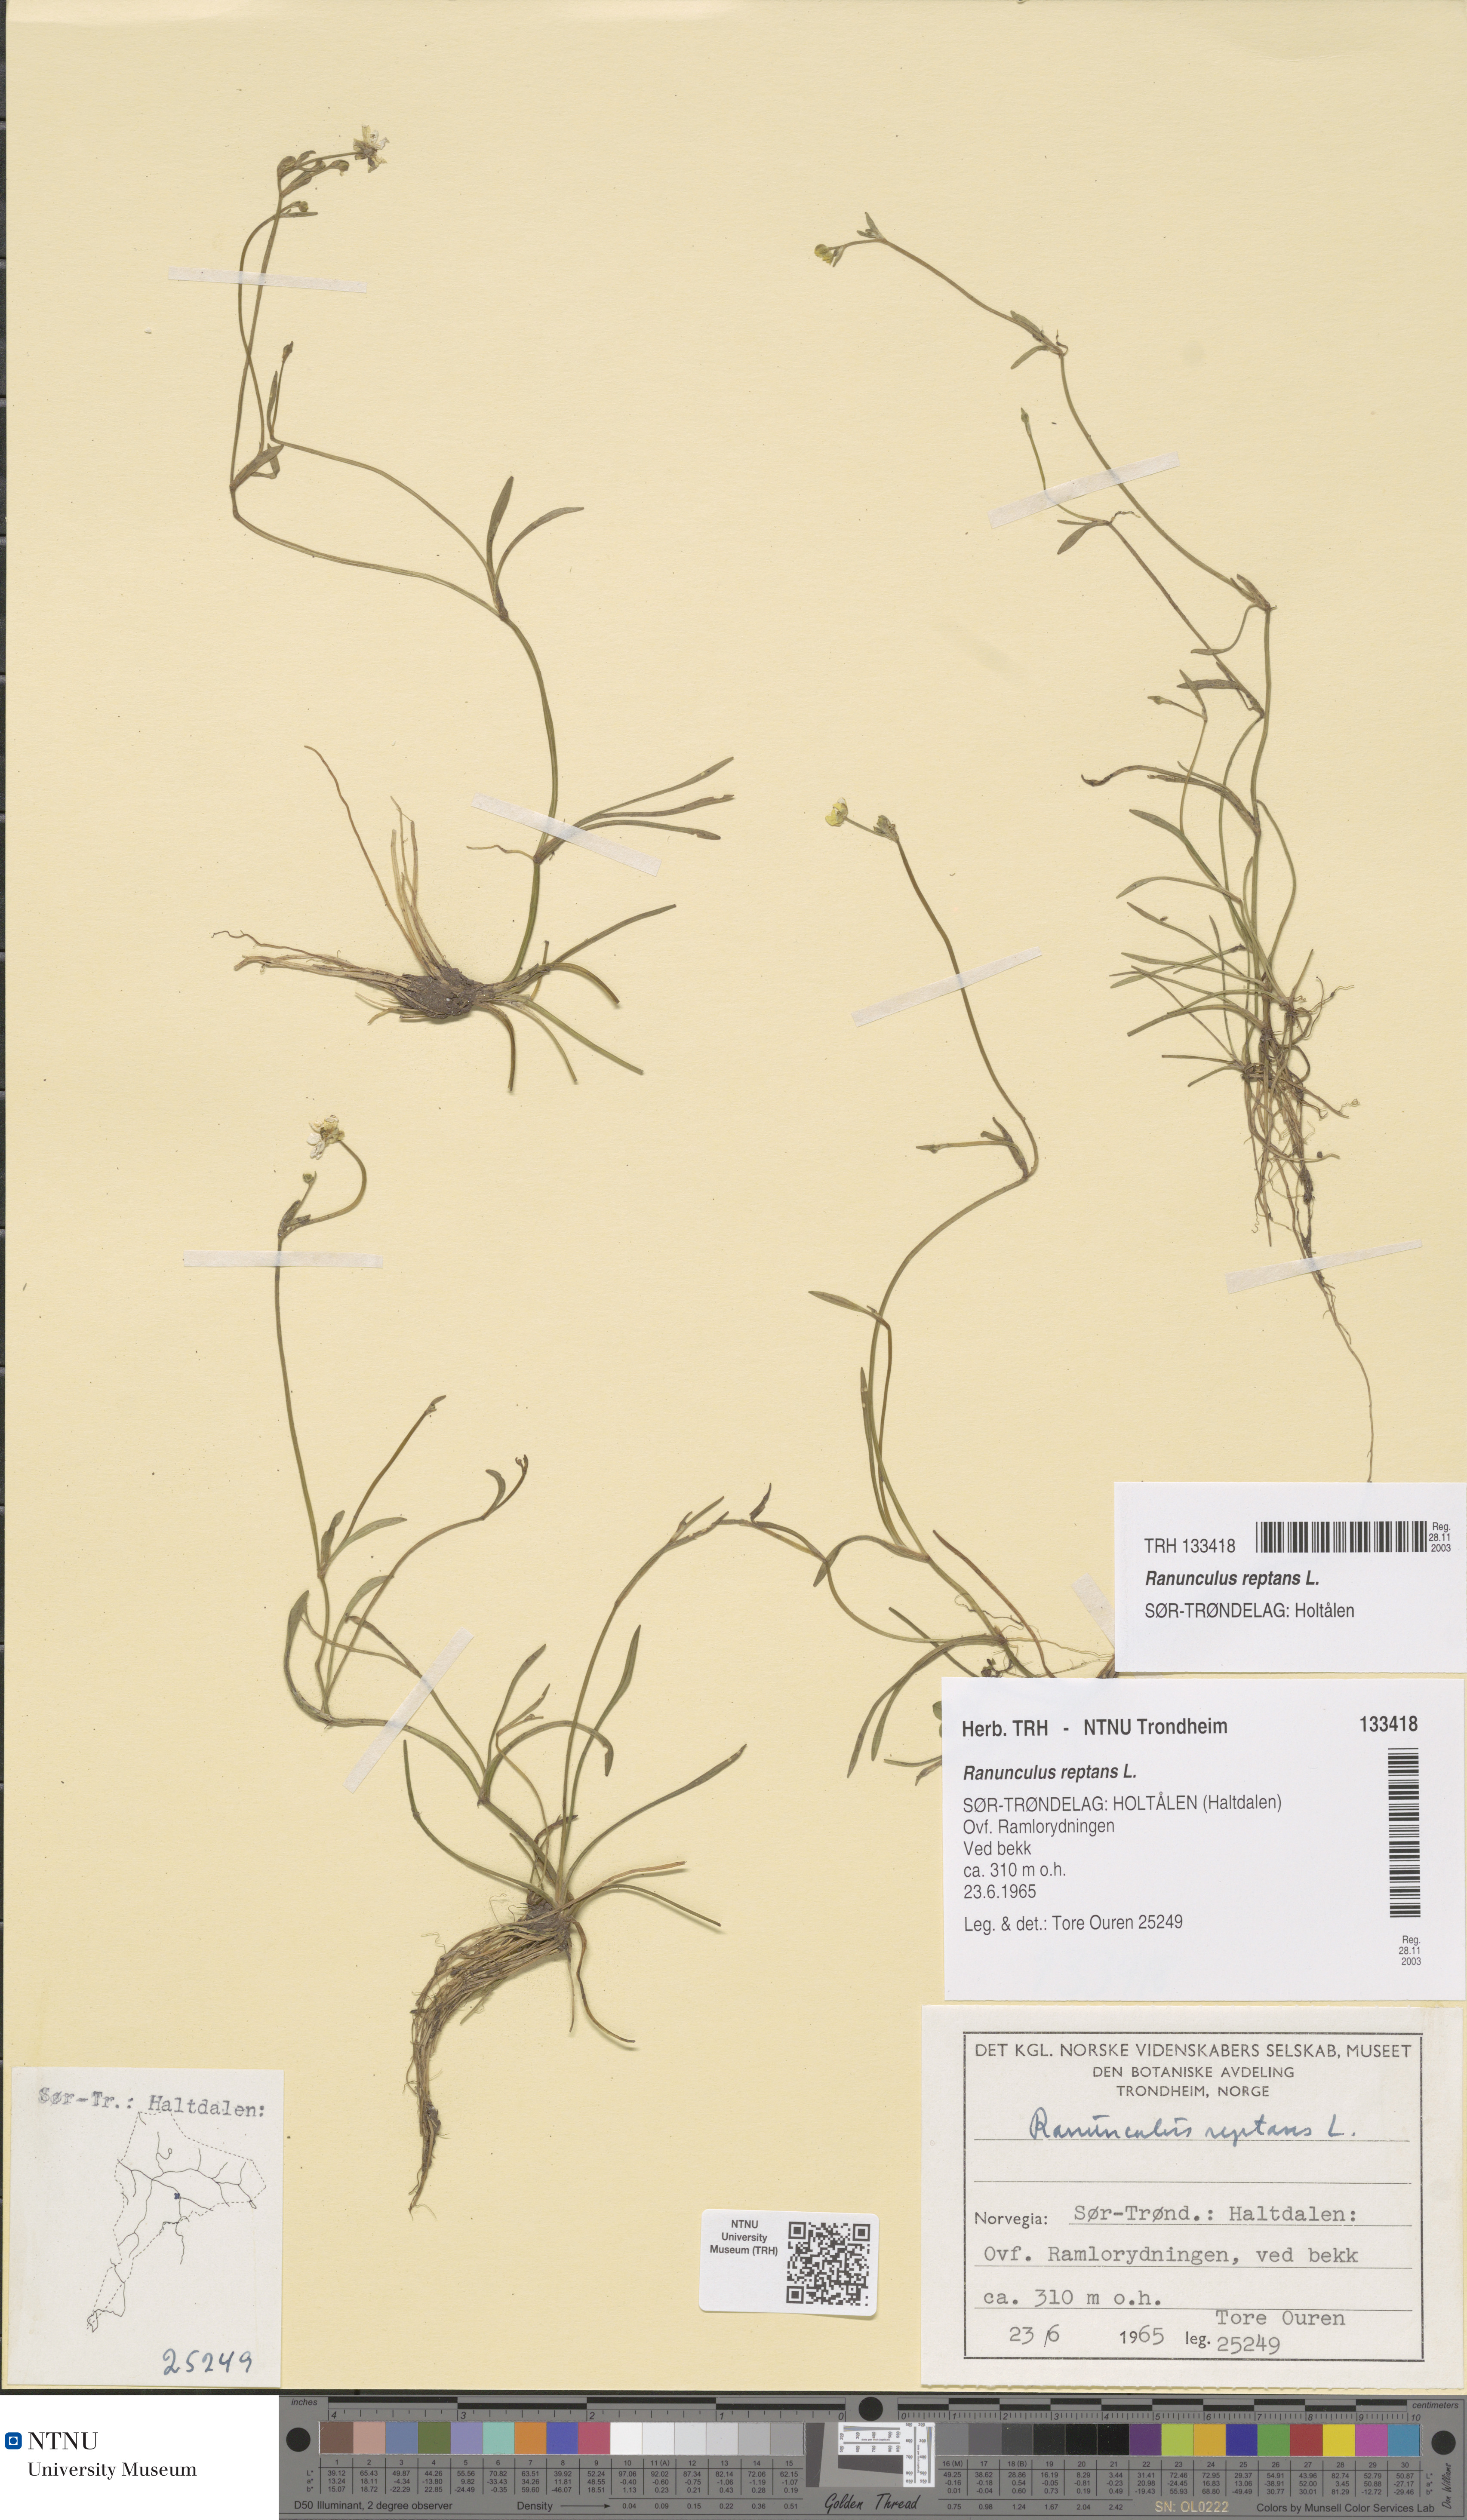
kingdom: Plantae
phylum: Tracheophyta
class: Magnoliopsida
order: Ranunculales
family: Ranunculaceae
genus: Ranunculus
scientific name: Ranunculus reptans
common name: Creeping spearwort
